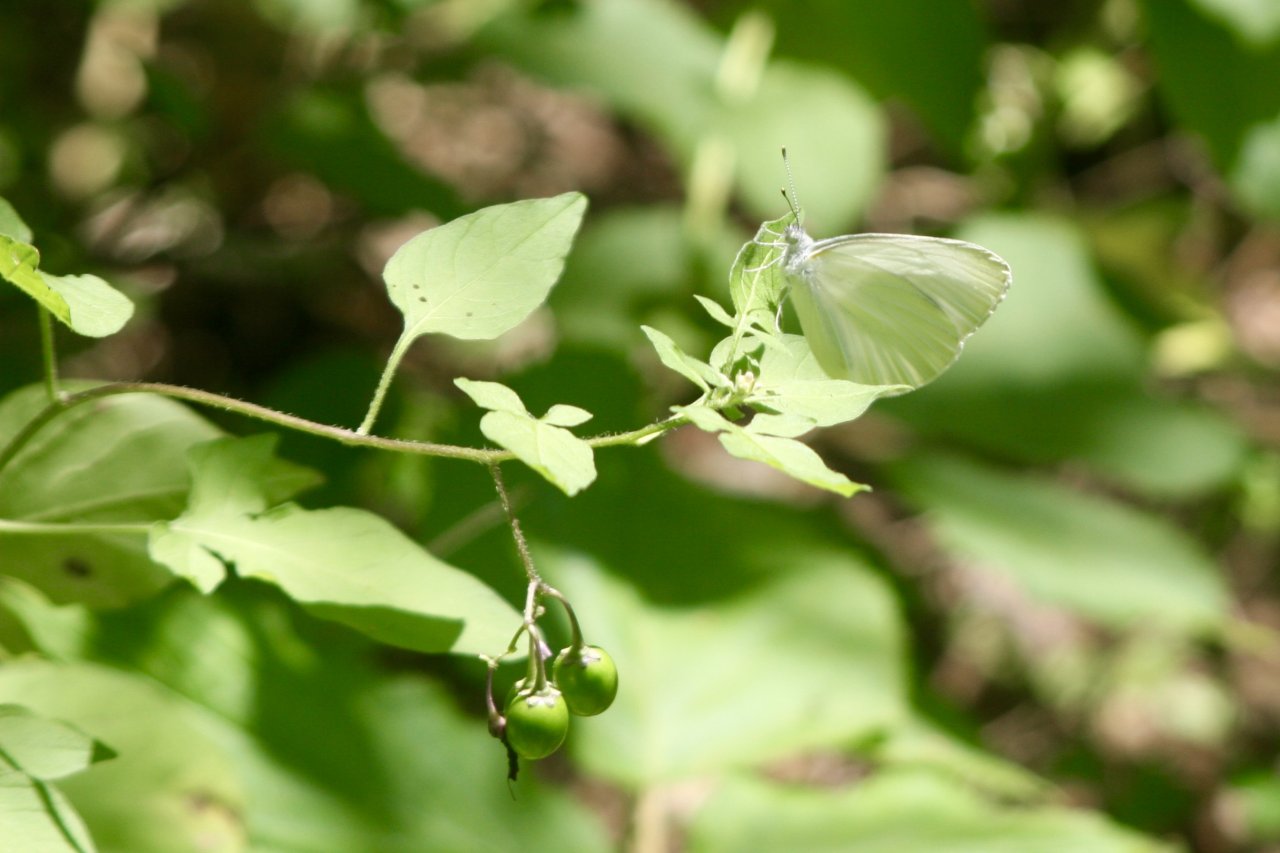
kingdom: Animalia
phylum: Arthropoda
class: Insecta
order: Lepidoptera
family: Pieridae
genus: Pieris
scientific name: Pieris oleracea
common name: Mustard White
